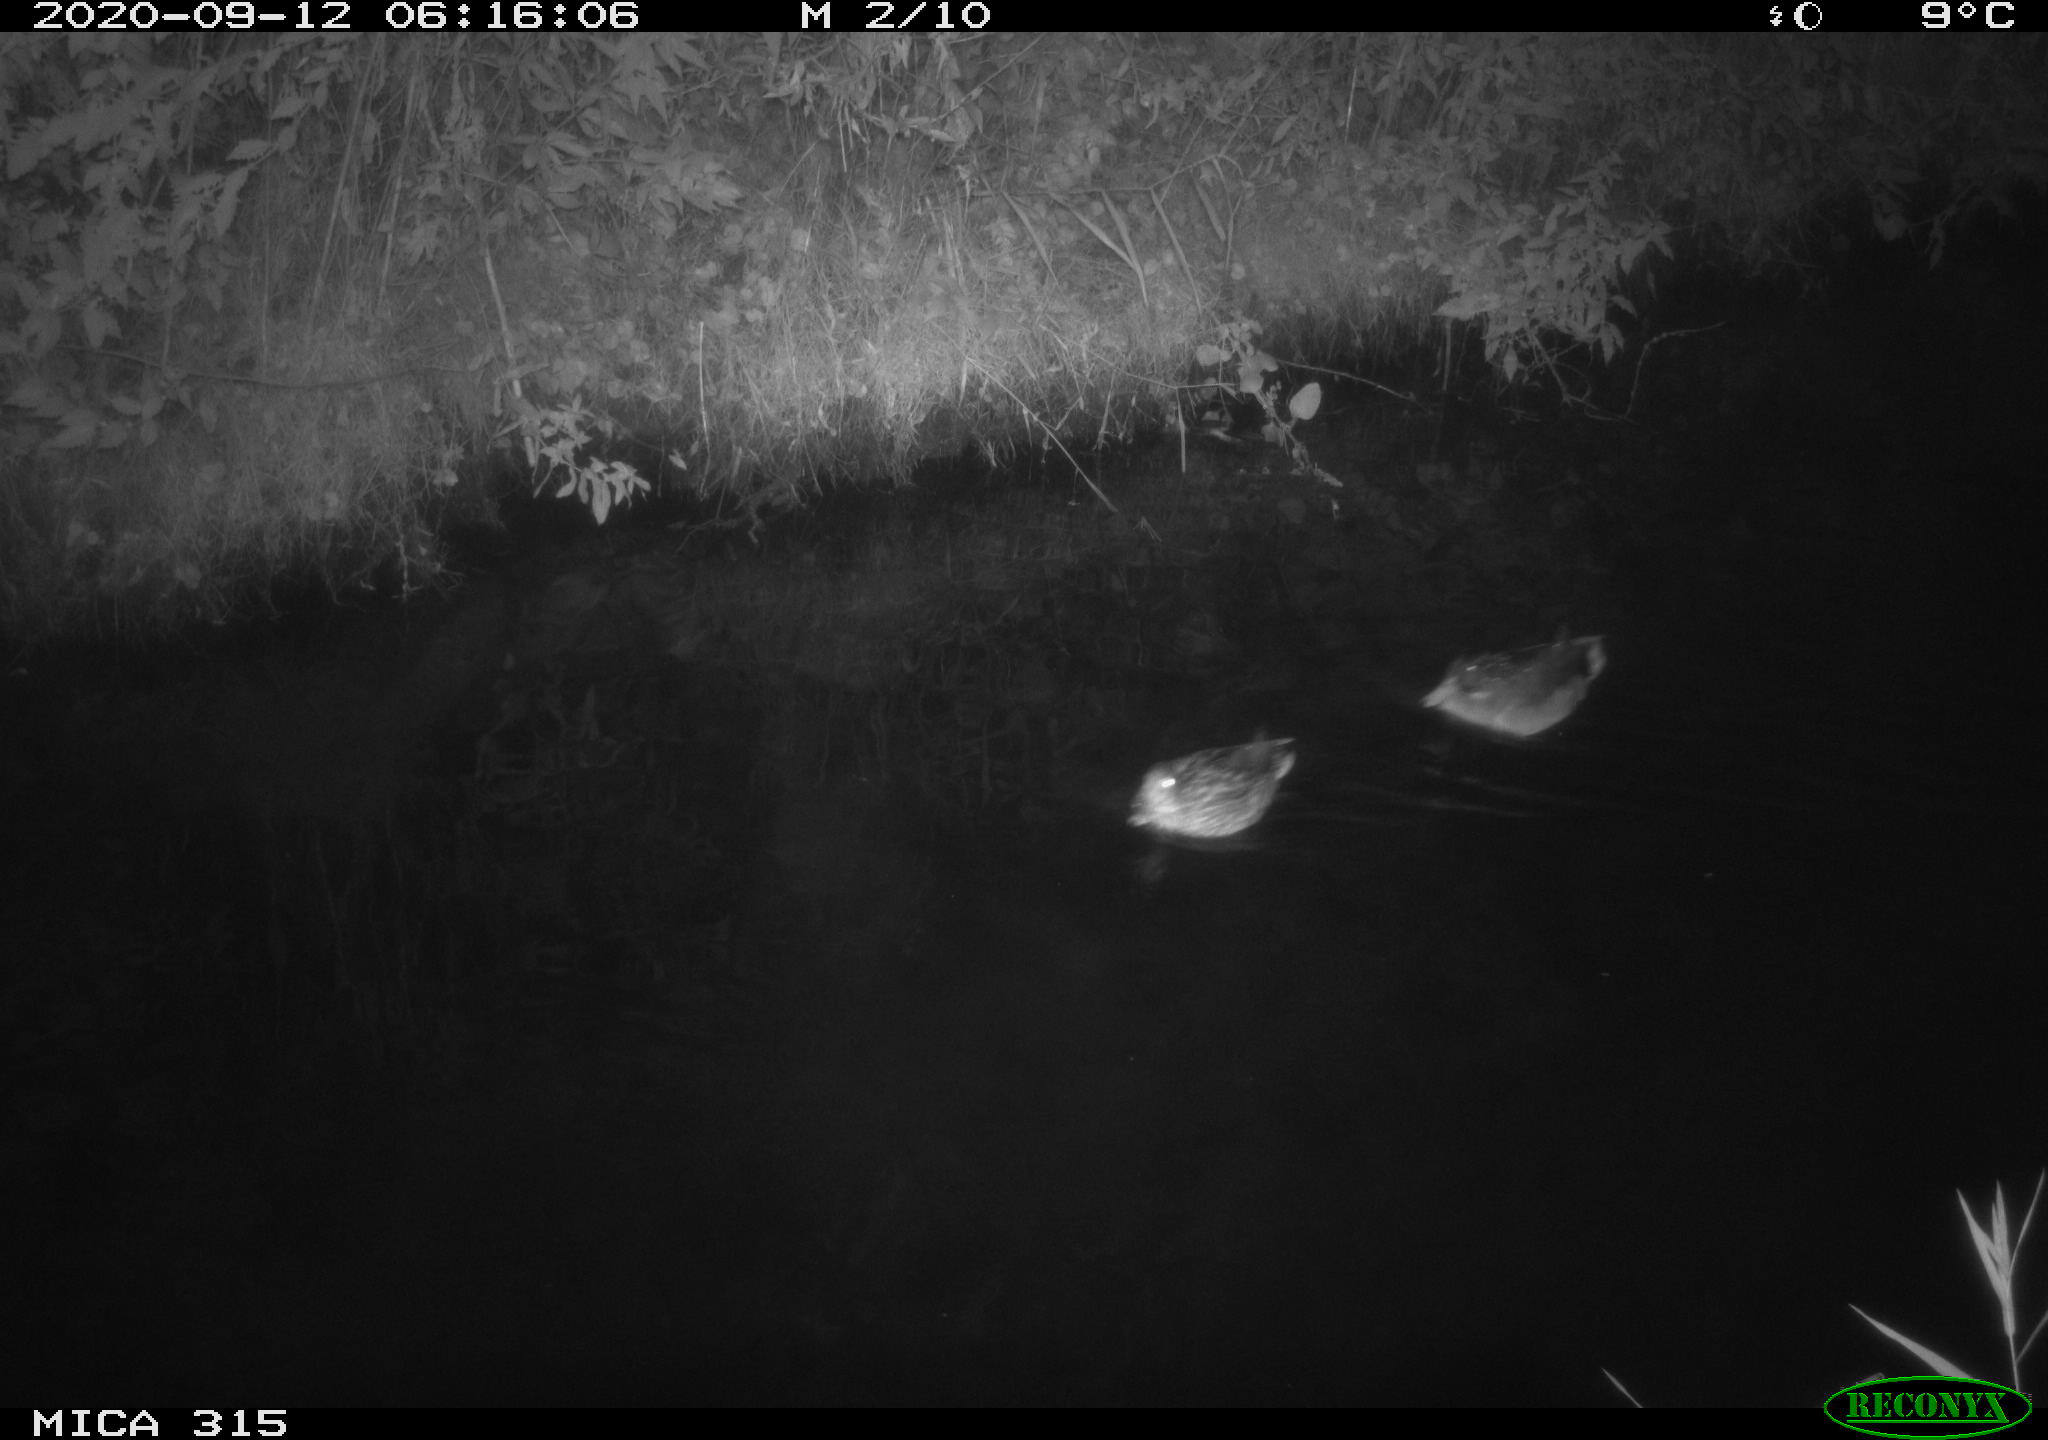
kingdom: Animalia
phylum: Chordata
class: Aves
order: Anseriformes
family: Anatidae
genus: Anas
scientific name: Anas platyrhynchos
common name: Mallard
